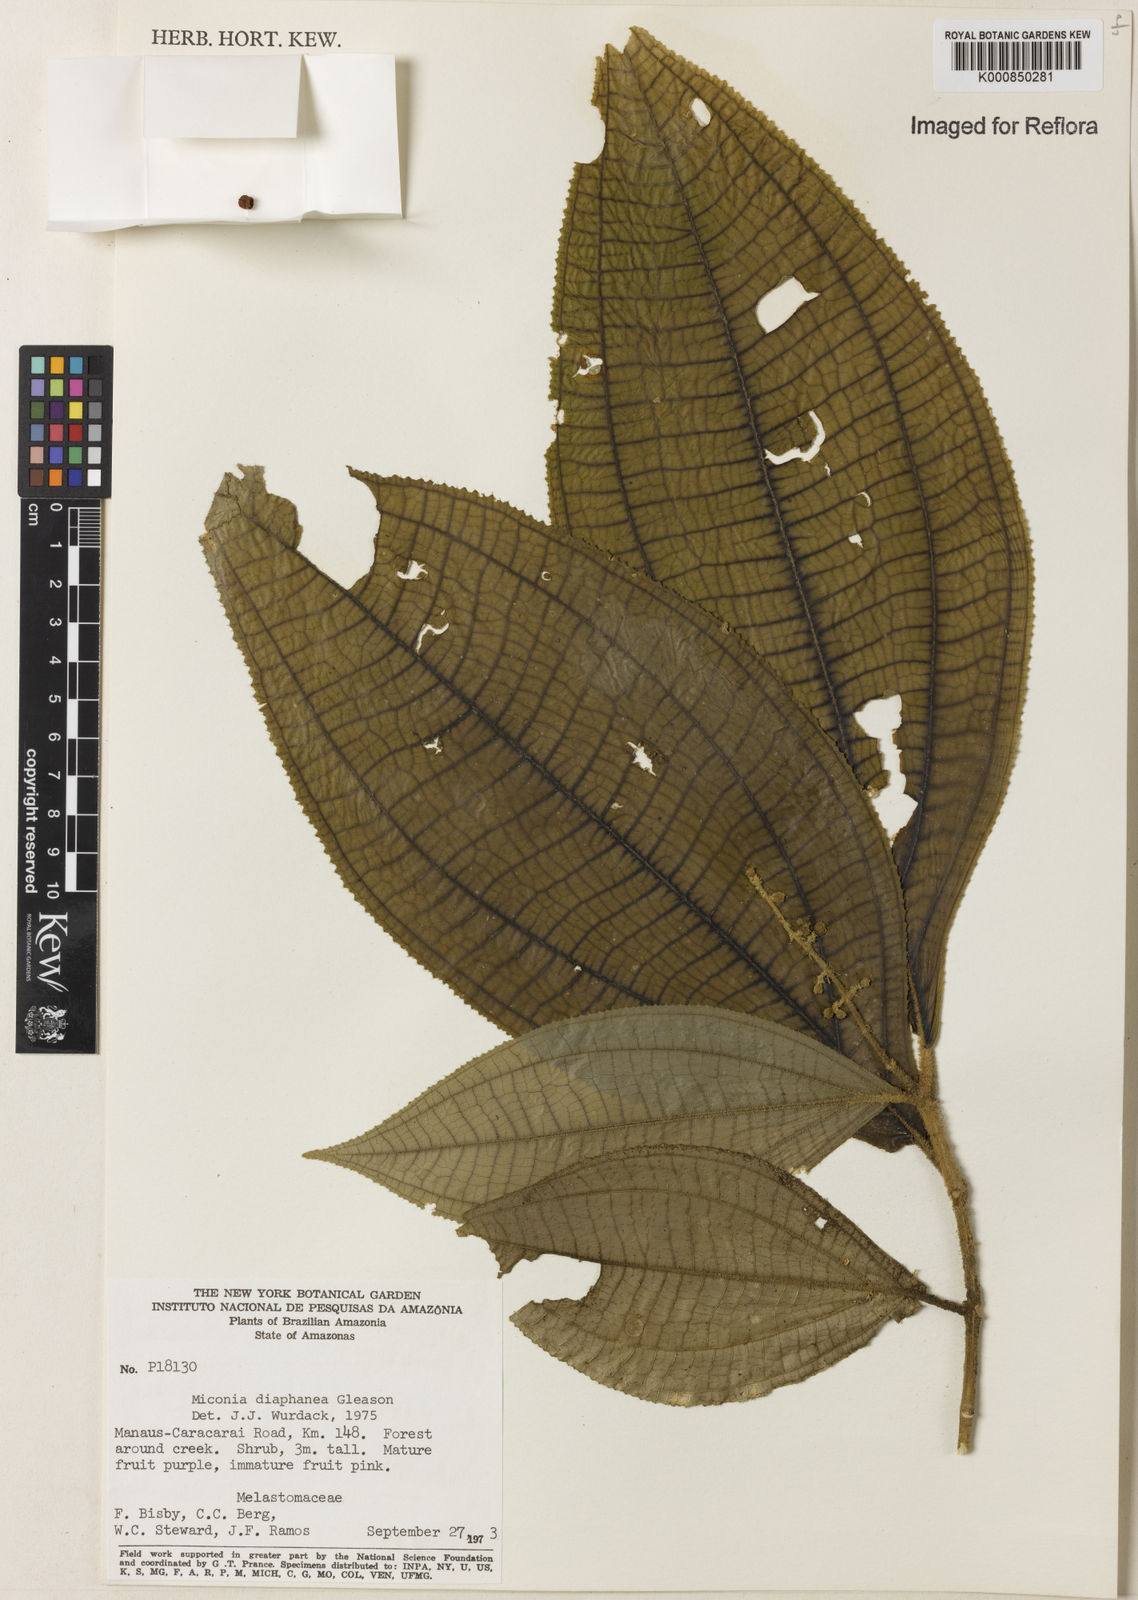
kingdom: Plantae
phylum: Tracheophyta
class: Magnoliopsida
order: Myrtales
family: Melastomataceae
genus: Miconia
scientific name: Miconia diaphanea
